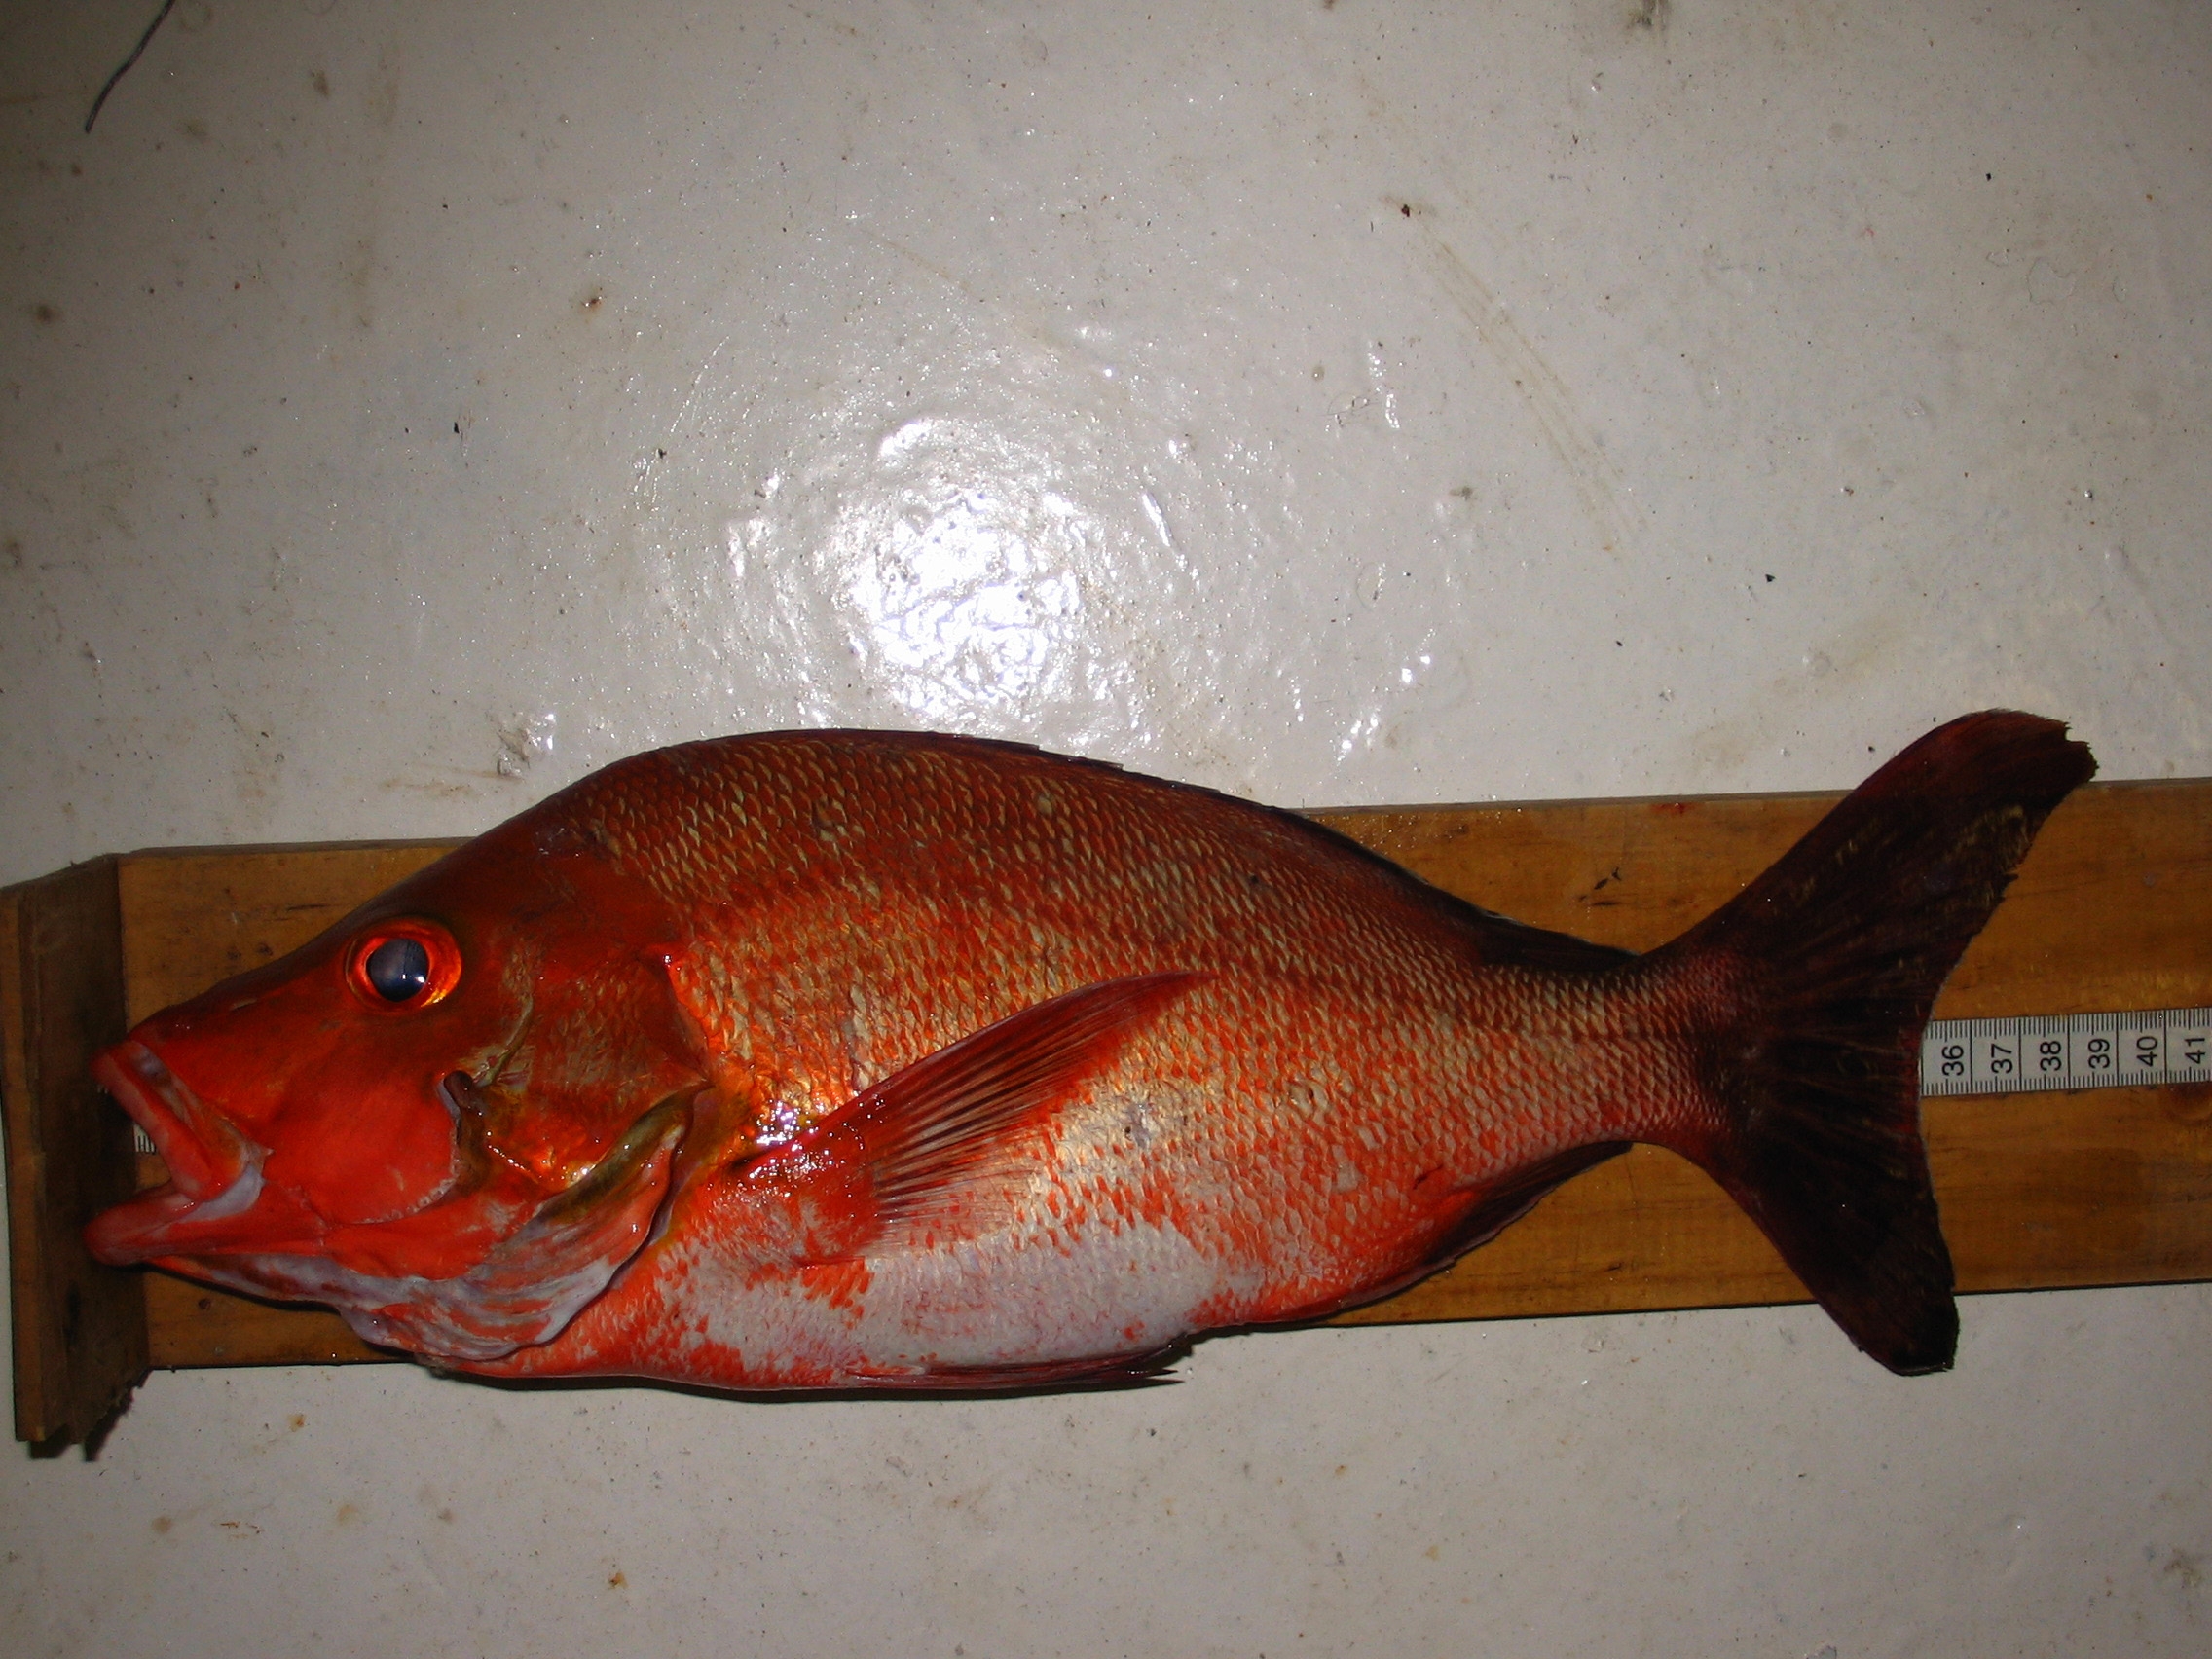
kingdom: Animalia
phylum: Chordata
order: Perciformes
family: Lutjanidae
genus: Lutjanus
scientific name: Lutjanus gibbus
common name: Humpback snapper
